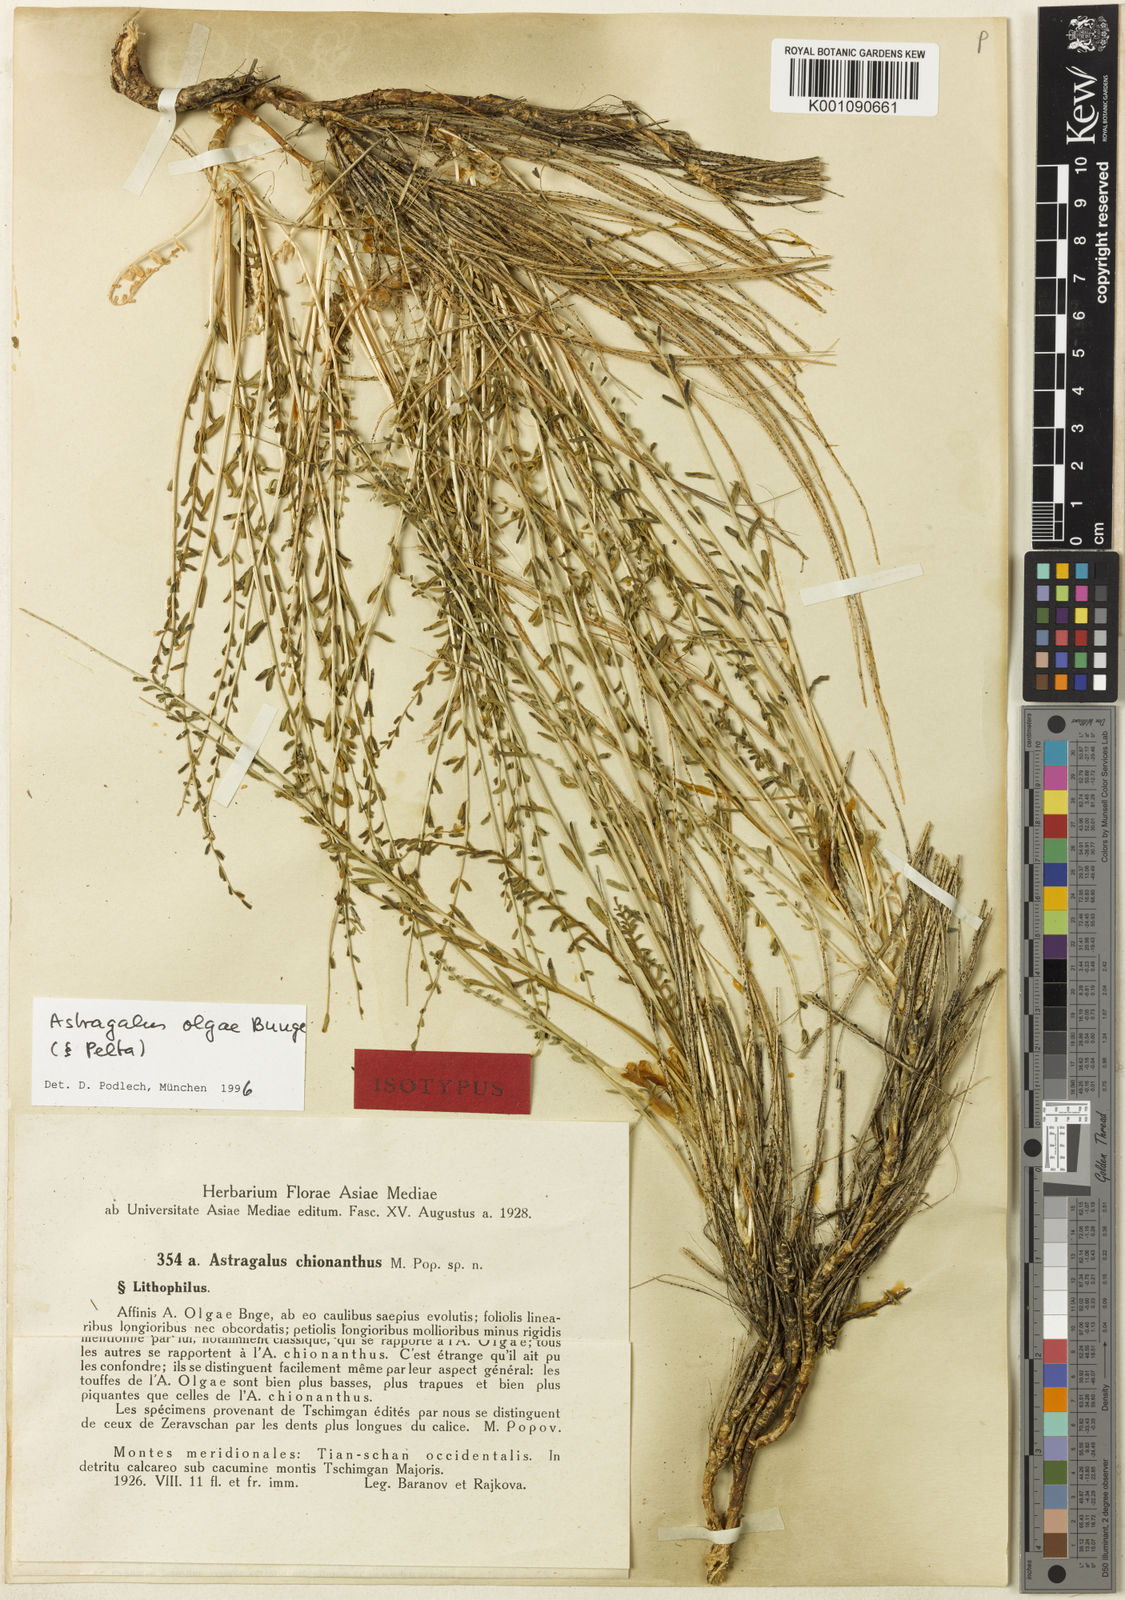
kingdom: Plantae
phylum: Tracheophyta
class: Magnoliopsida
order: Fabales
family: Fabaceae
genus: Astragalus
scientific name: Astragalus
